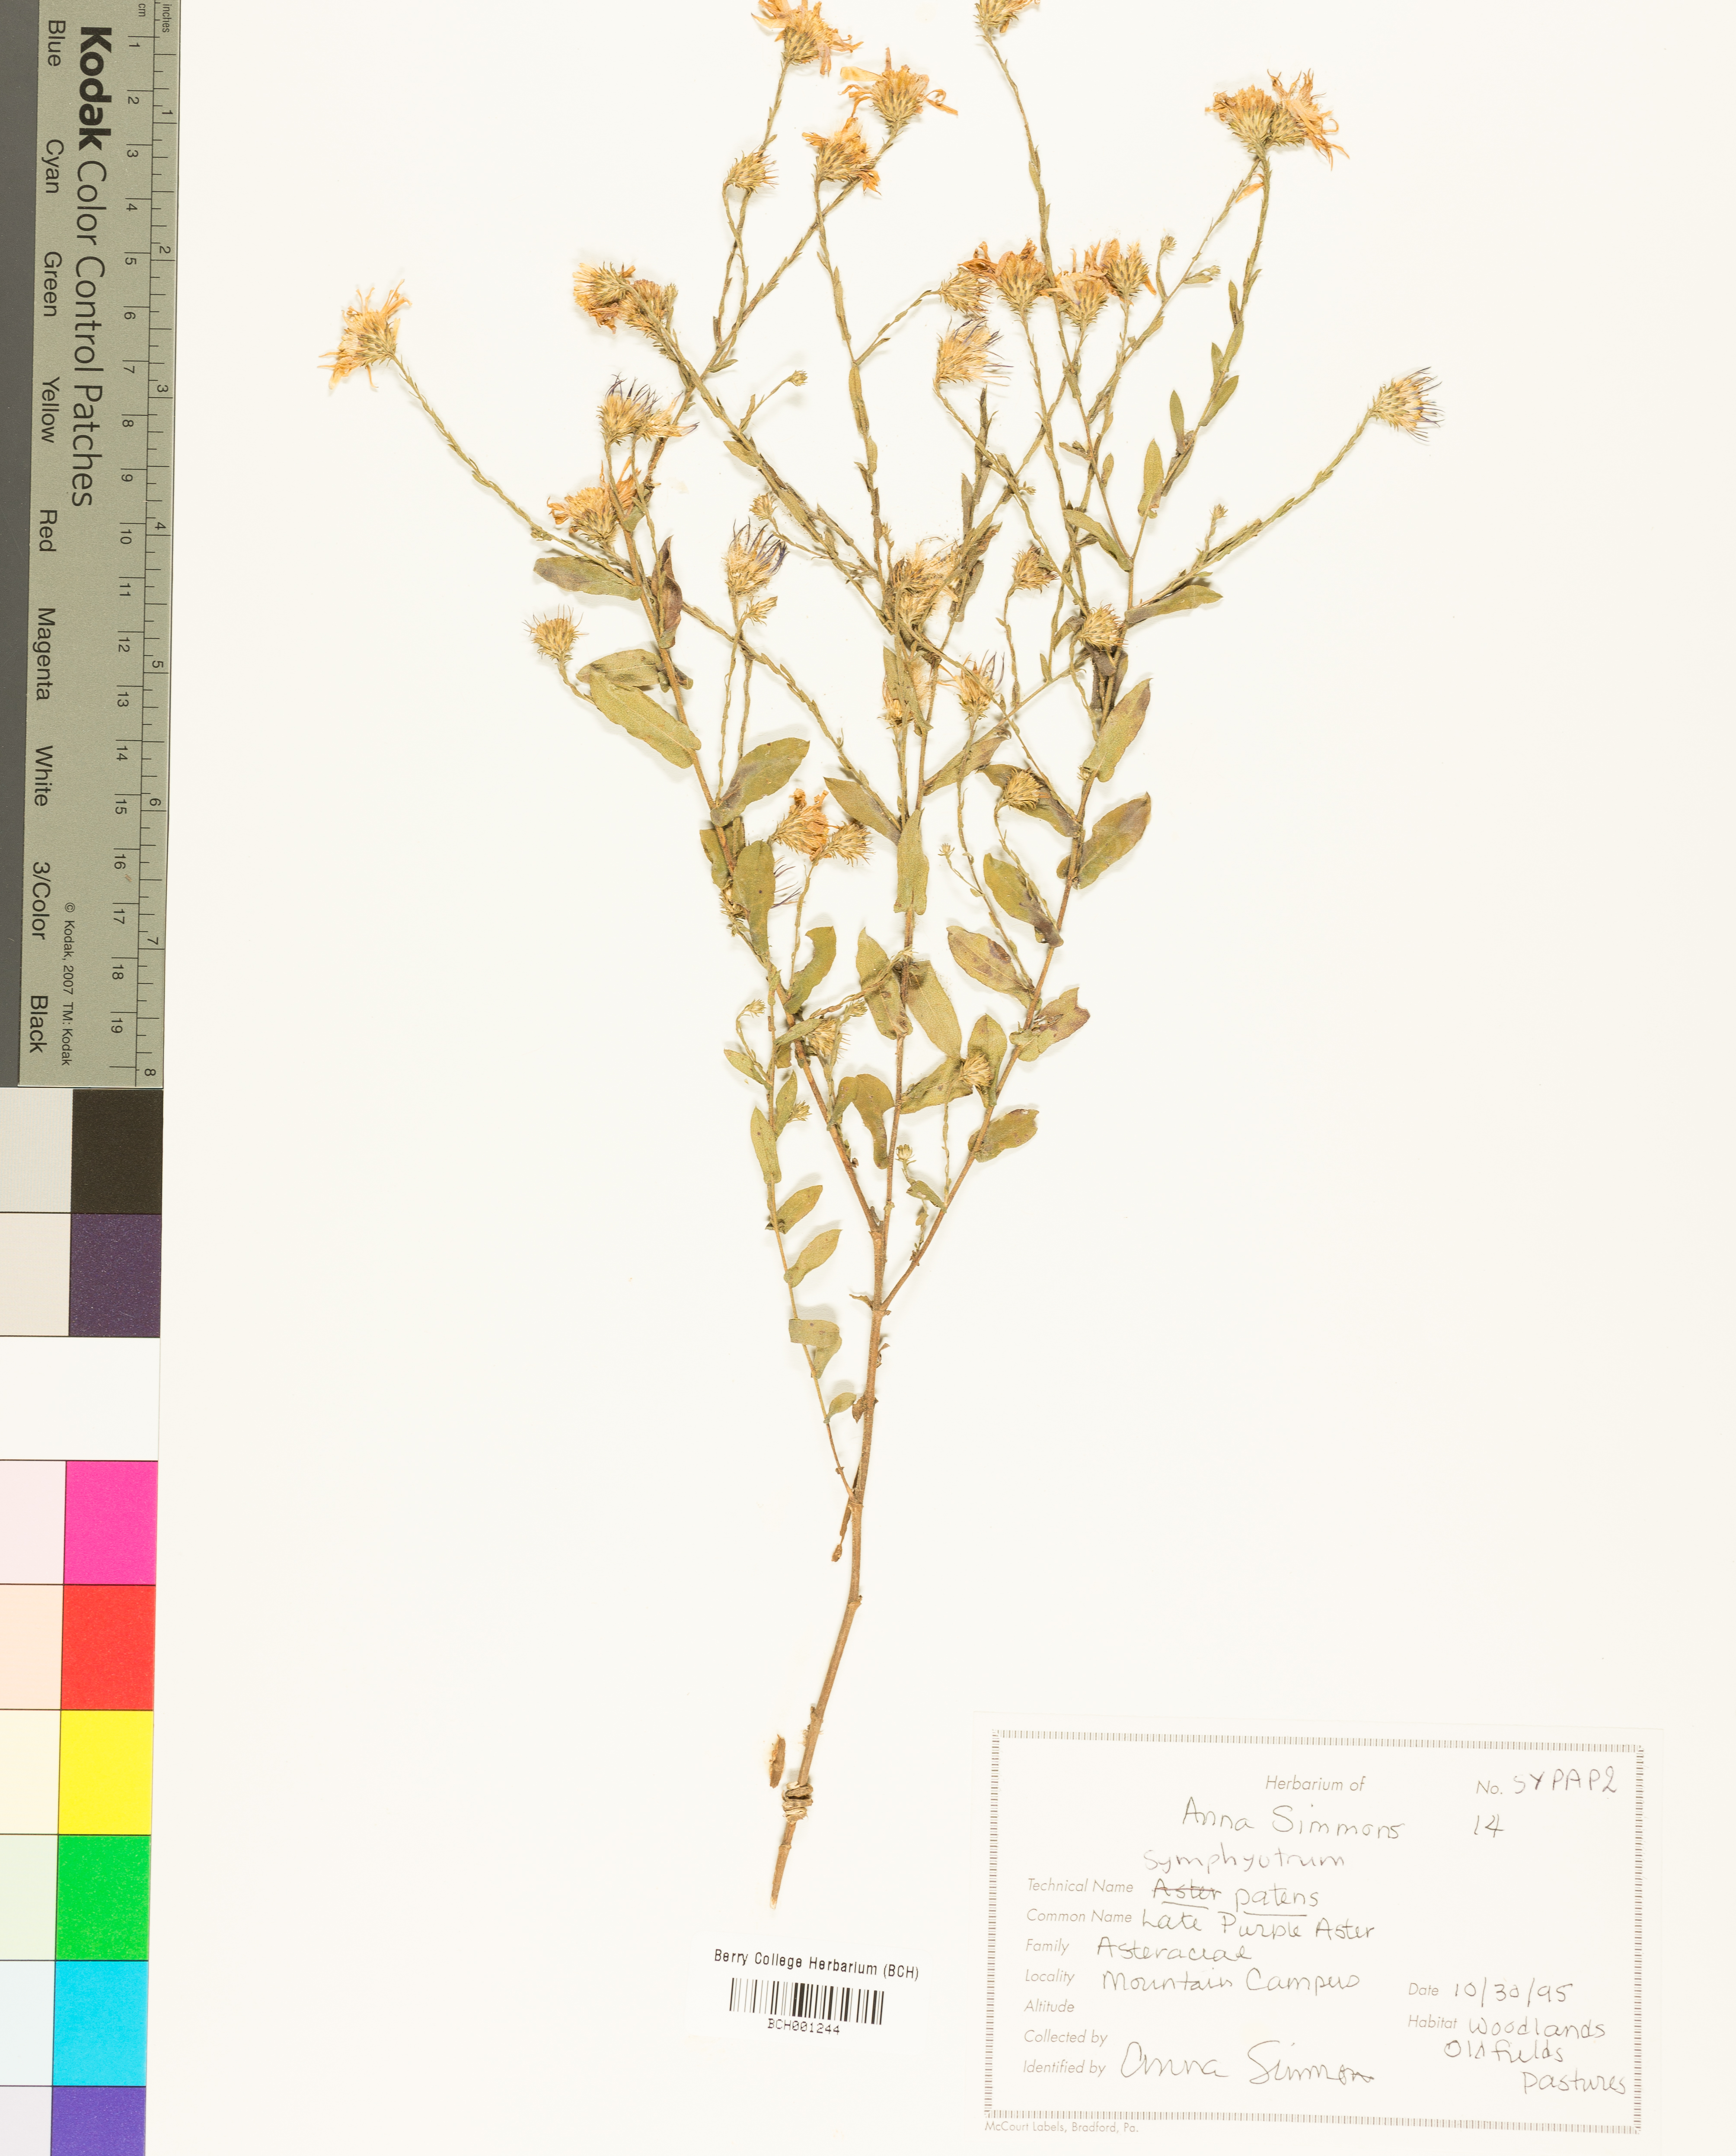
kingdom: Plantae
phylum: Tracheophyta
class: Magnoliopsida
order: Asterales
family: Asteraceae
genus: Symphyotrichum
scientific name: Symphyotrichum patens
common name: Late purple aster
